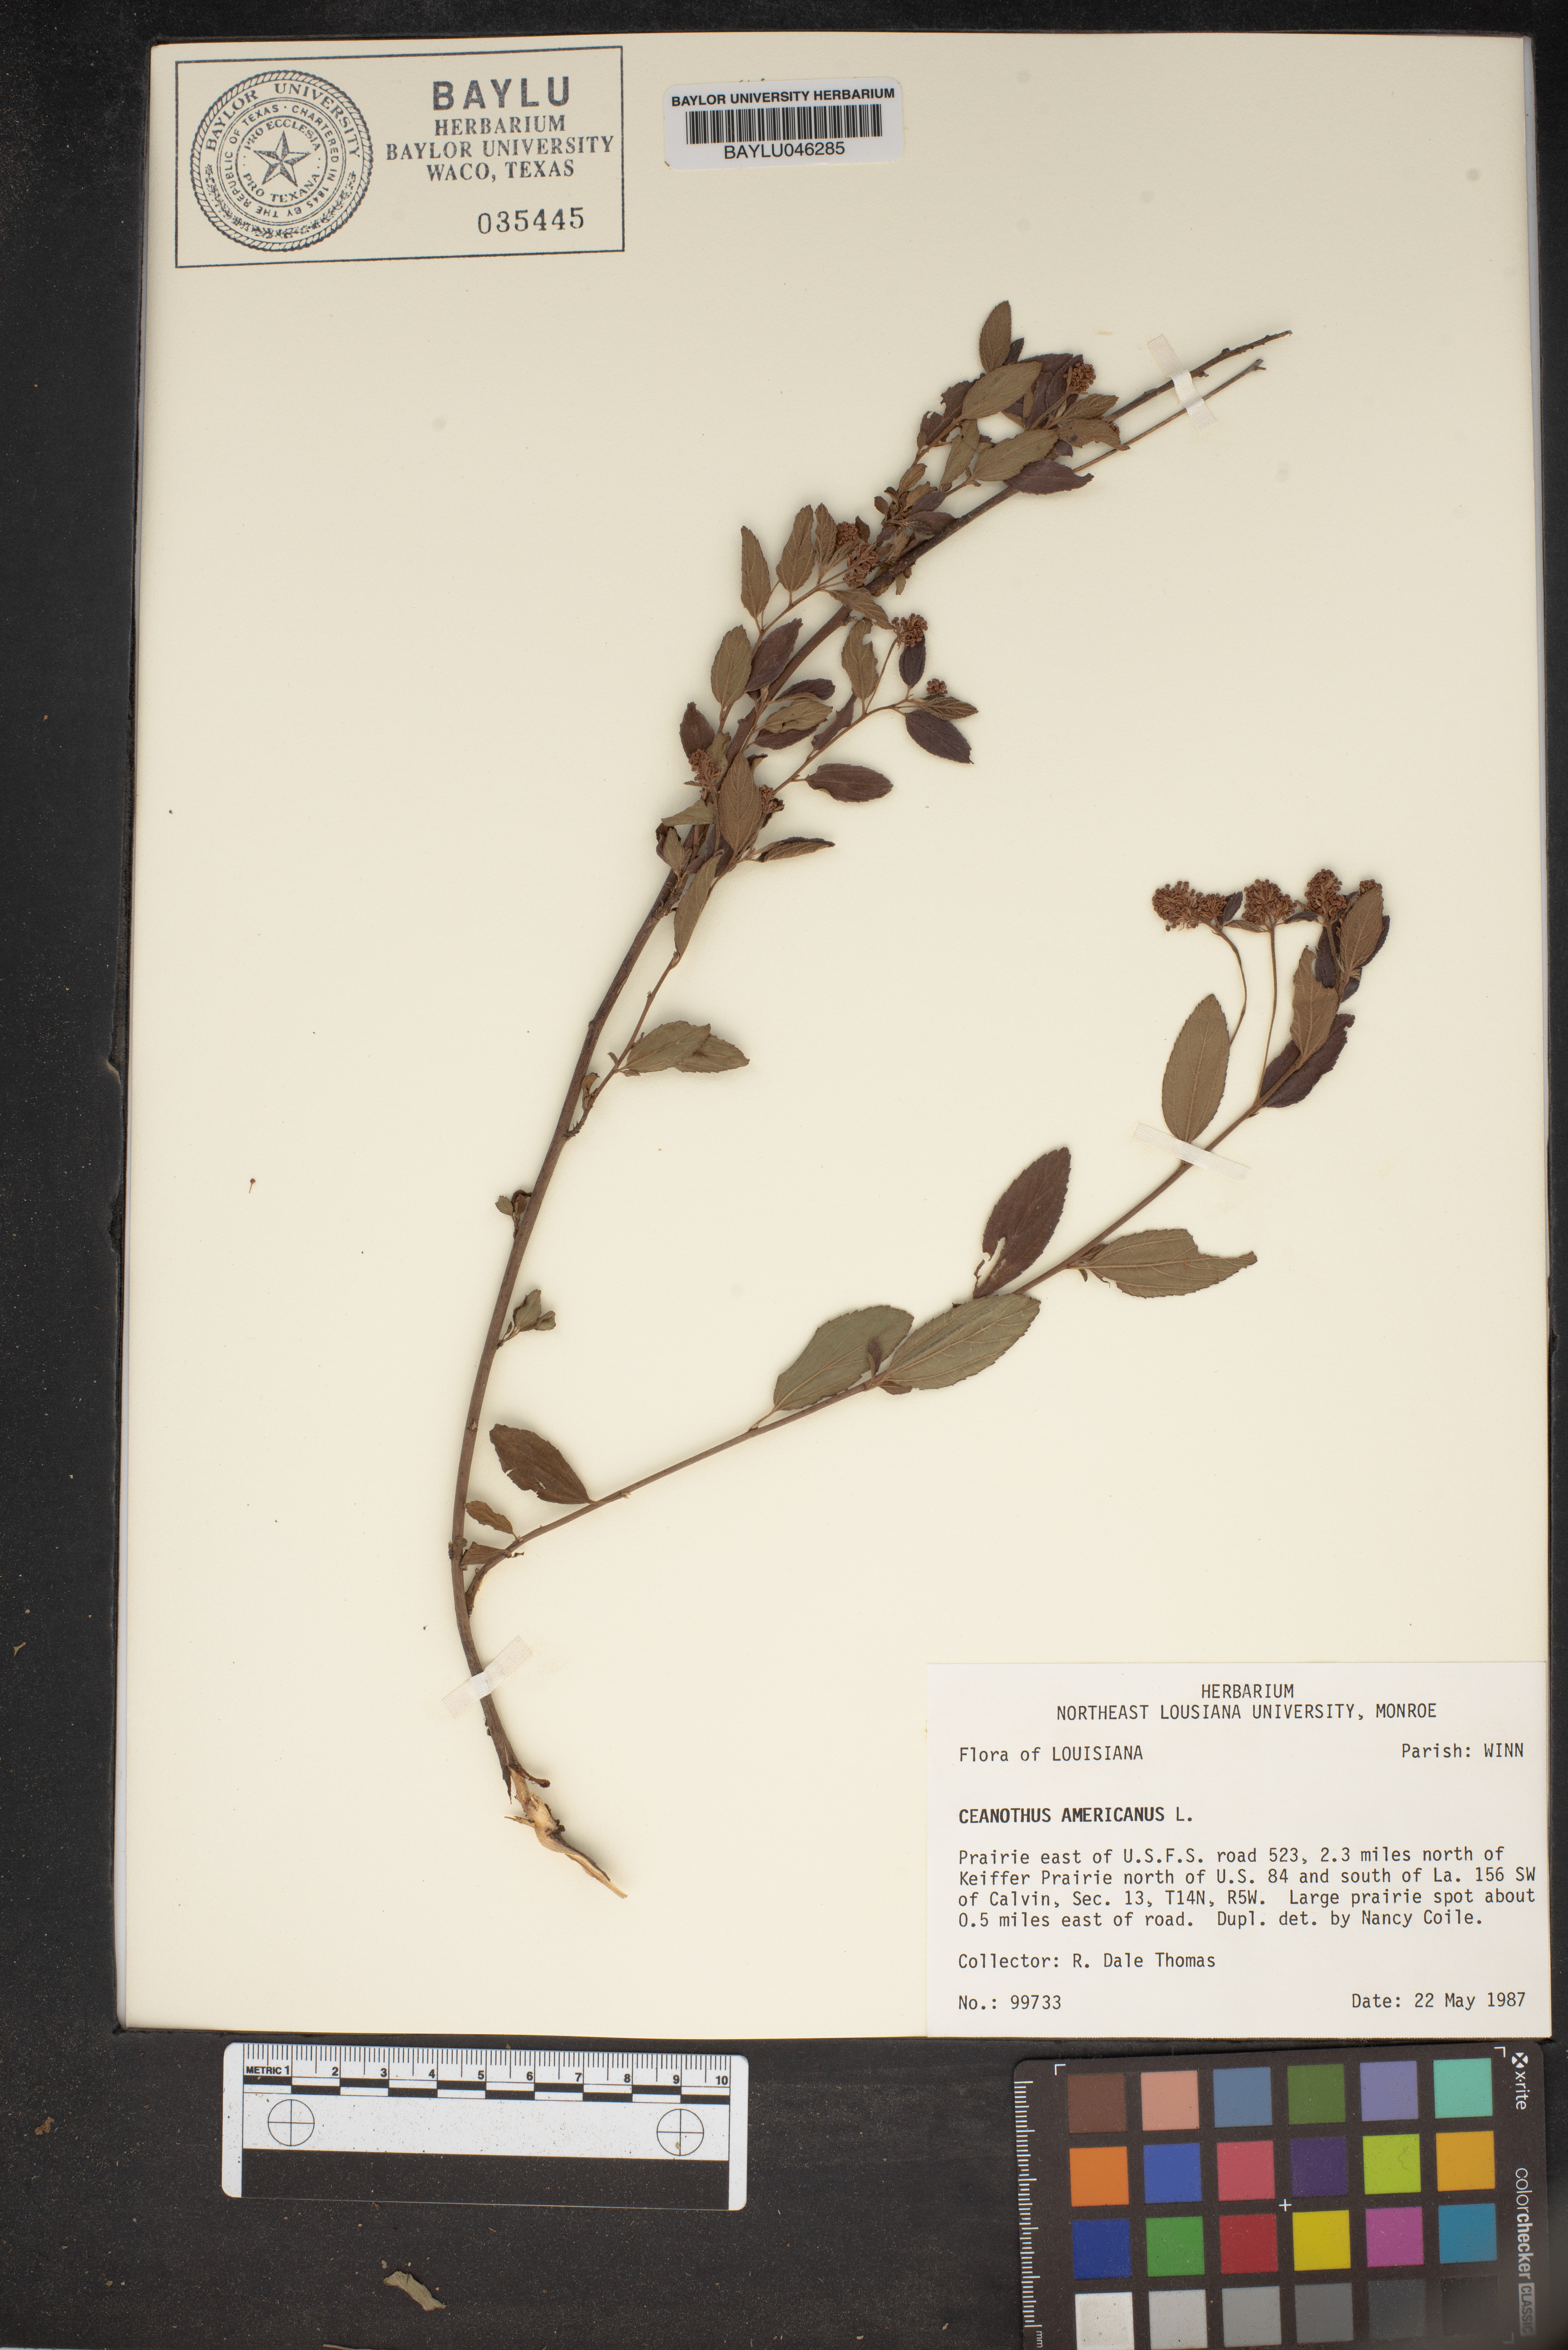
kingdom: Plantae
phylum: Tracheophyta
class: Magnoliopsida
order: Rosales
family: Rhamnaceae
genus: Ceanothus
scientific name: Ceanothus americanus
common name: Redroot
